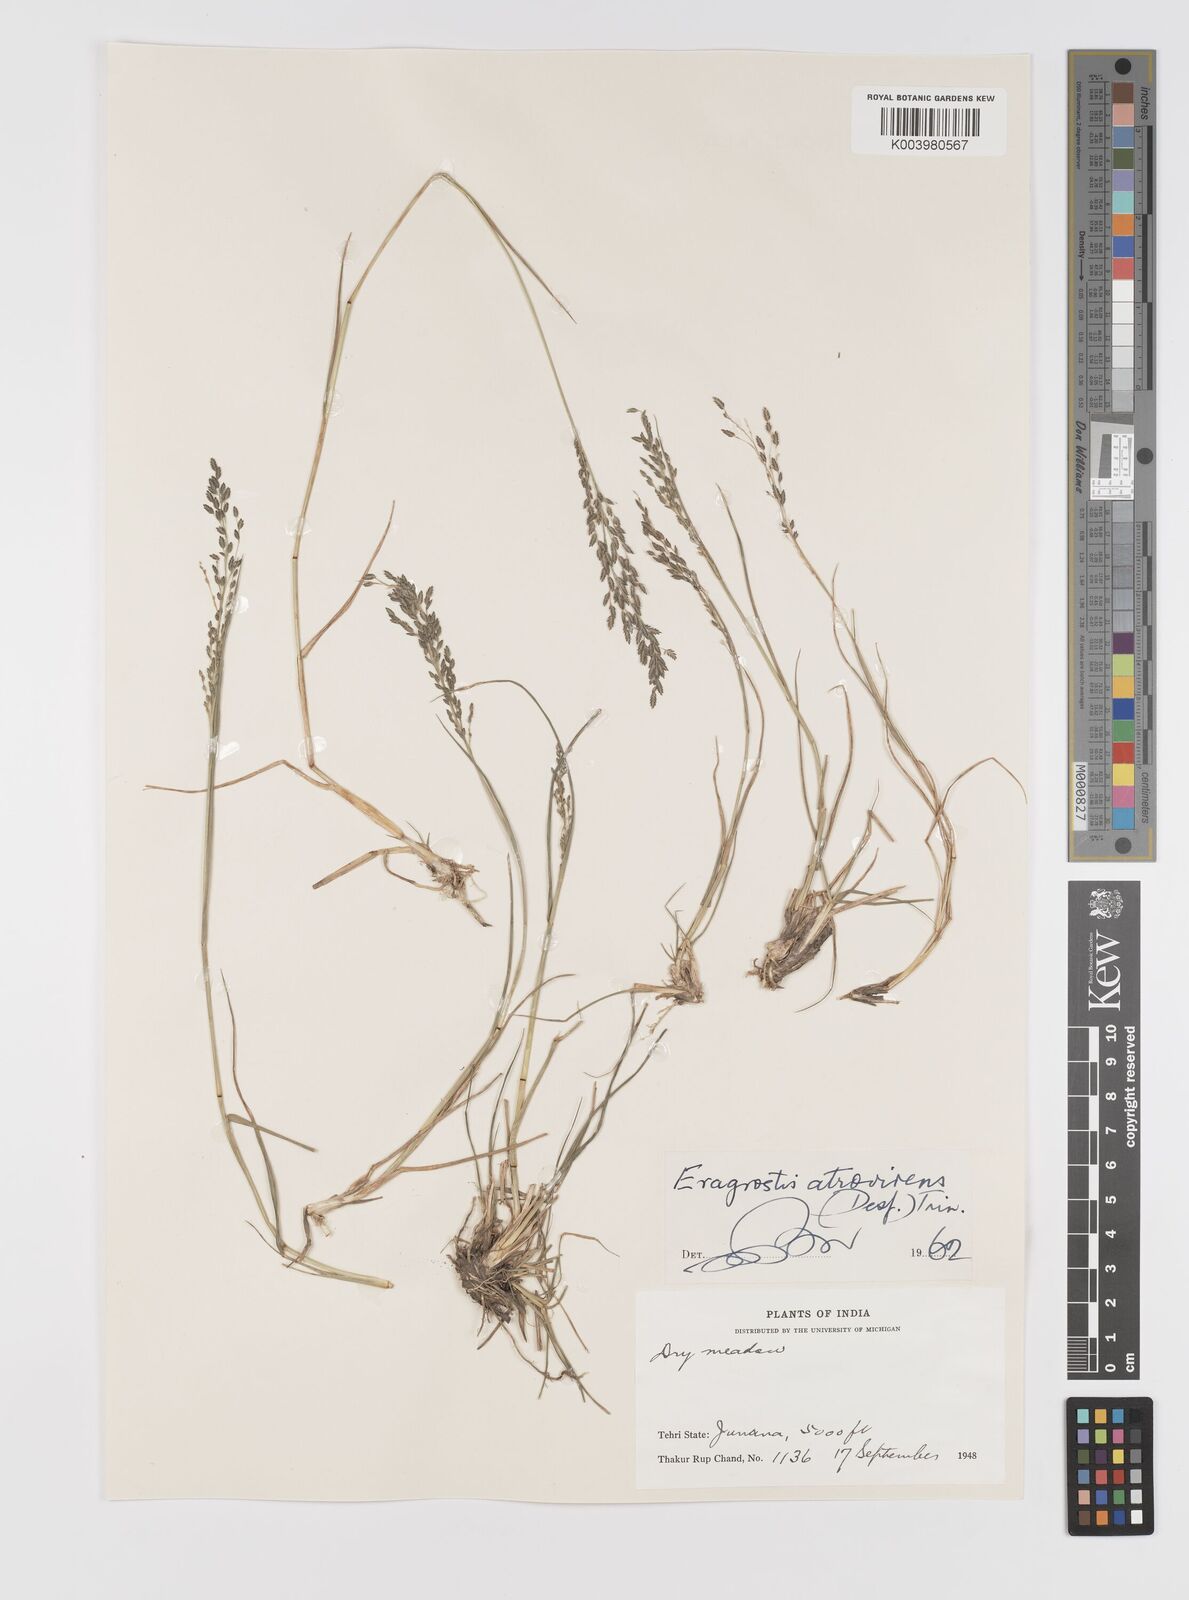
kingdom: Plantae
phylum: Tracheophyta
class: Liliopsida
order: Poales
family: Poaceae
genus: Eragrostis
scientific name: Eragrostis atrovirens
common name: Thalia lovegrass
